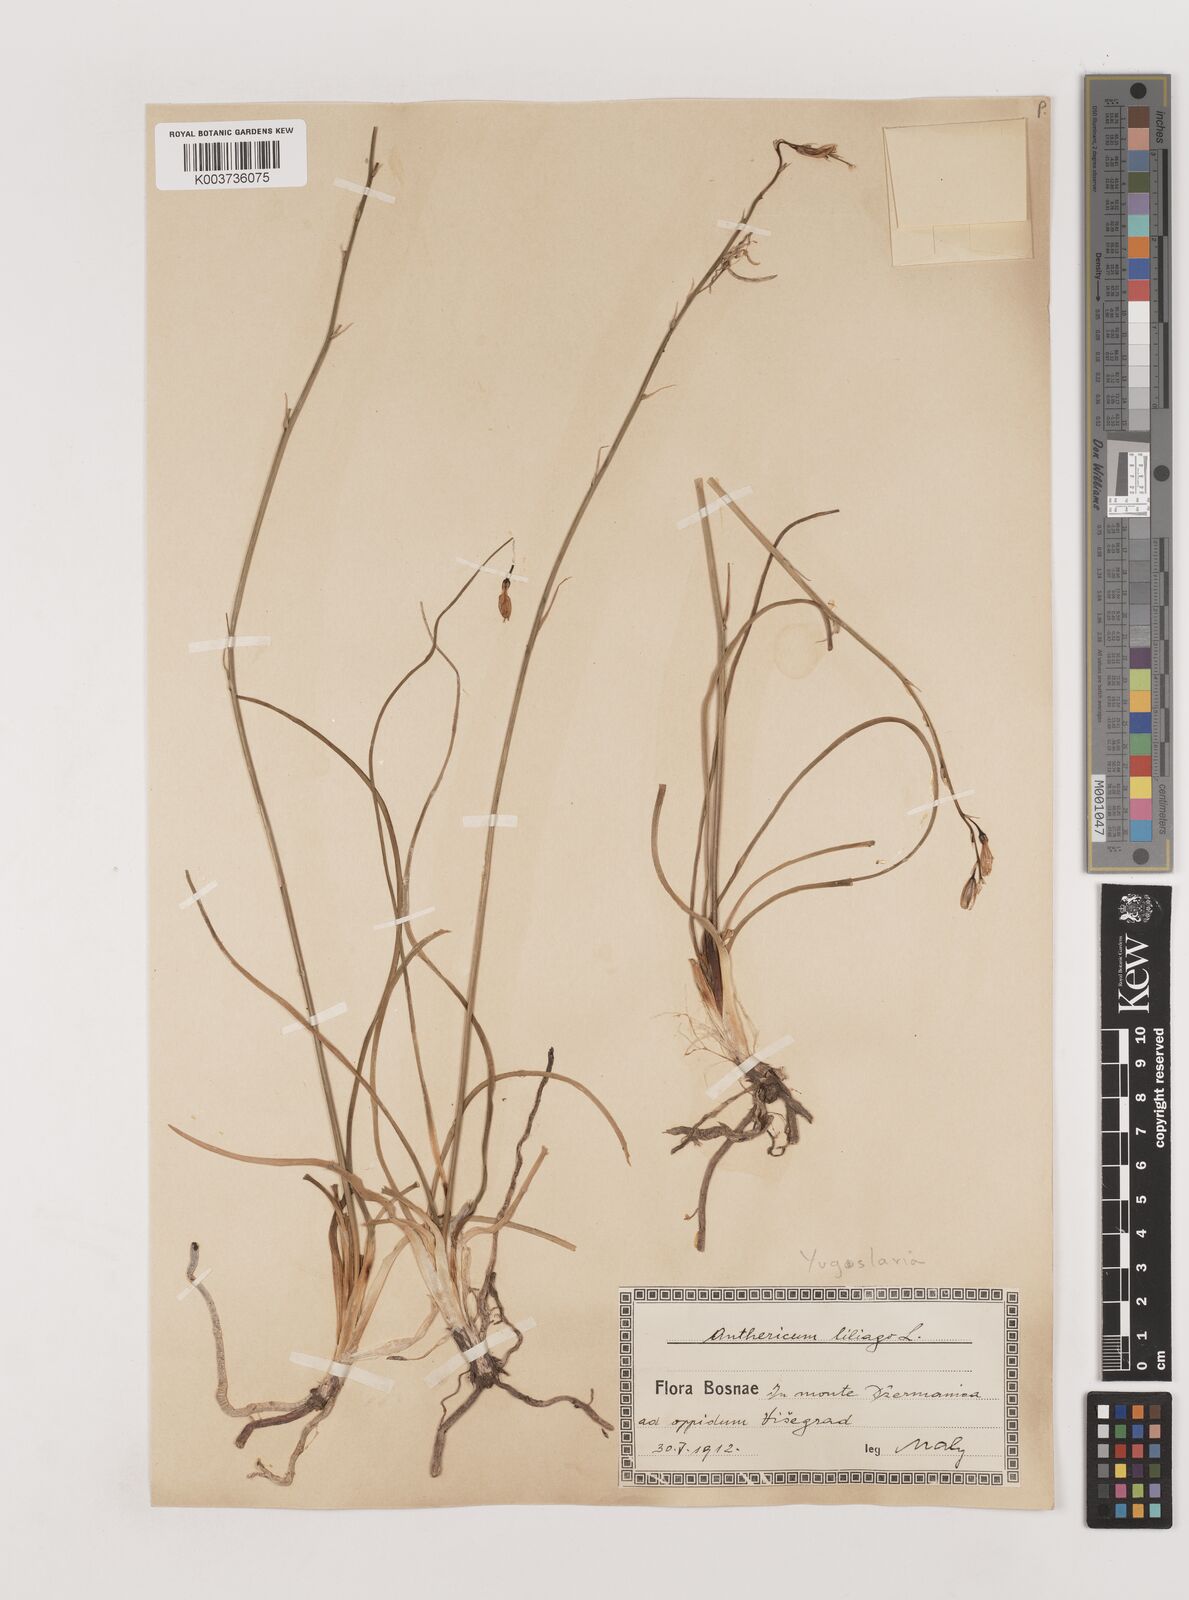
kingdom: Plantae
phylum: Tracheophyta
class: Liliopsida
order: Asparagales
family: Asparagaceae
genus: Anthericum
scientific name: Anthericum liliago
